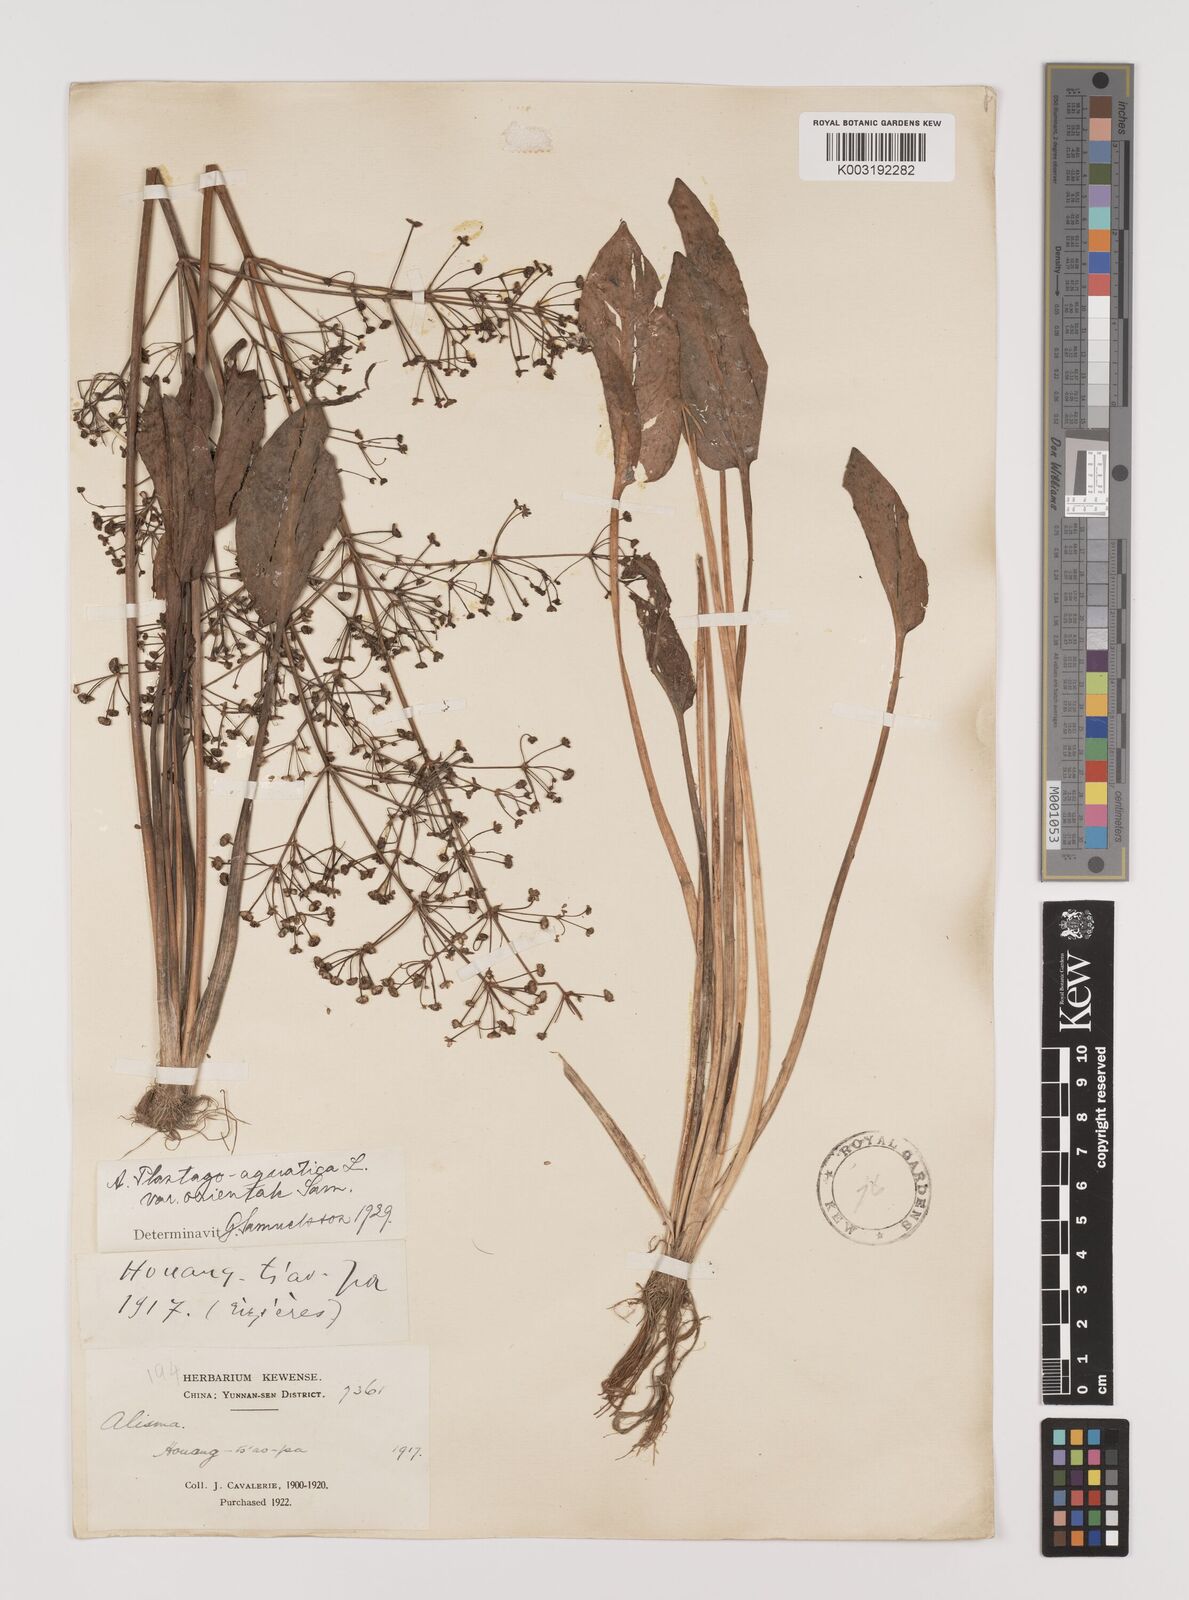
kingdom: Plantae
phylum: Tracheophyta
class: Liliopsida
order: Alismatales
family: Alismataceae
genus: Alisma
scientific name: Alisma plantago-aquatica
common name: Water-plantain
